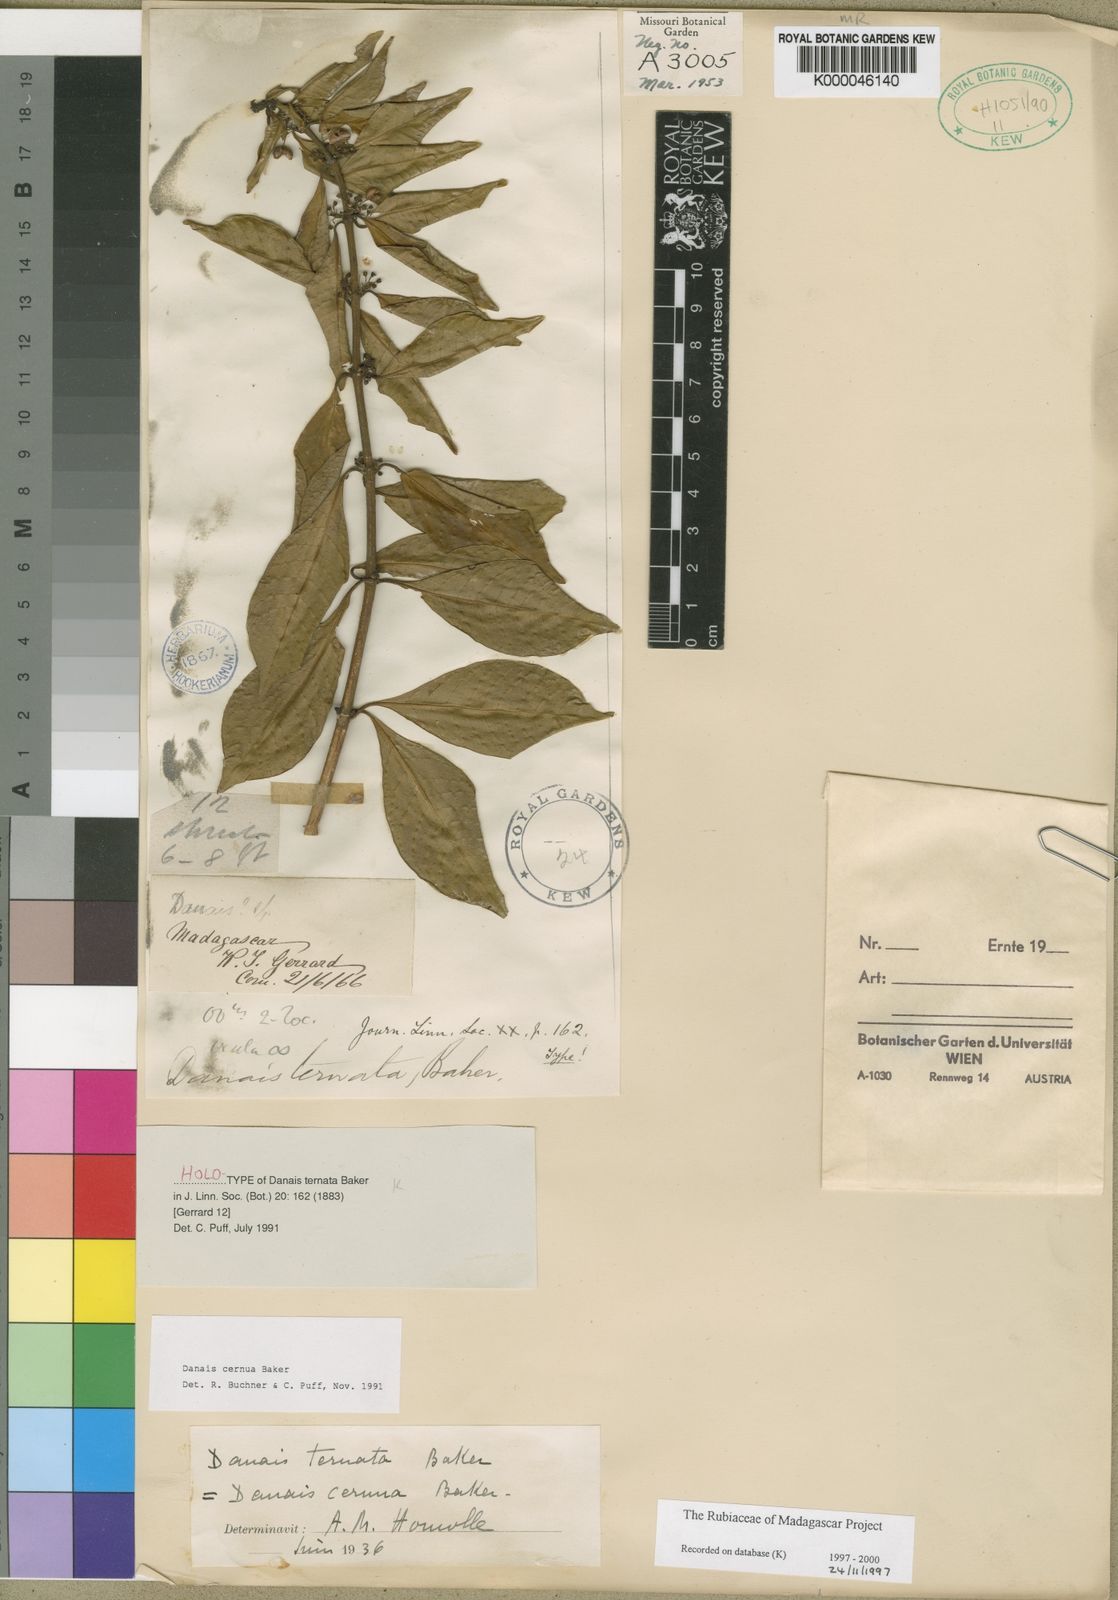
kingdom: Plantae
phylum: Tracheophyta
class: Magnoliopsida
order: Gentianales
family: Rubiaceae
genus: Danais
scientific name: Danais cernua
